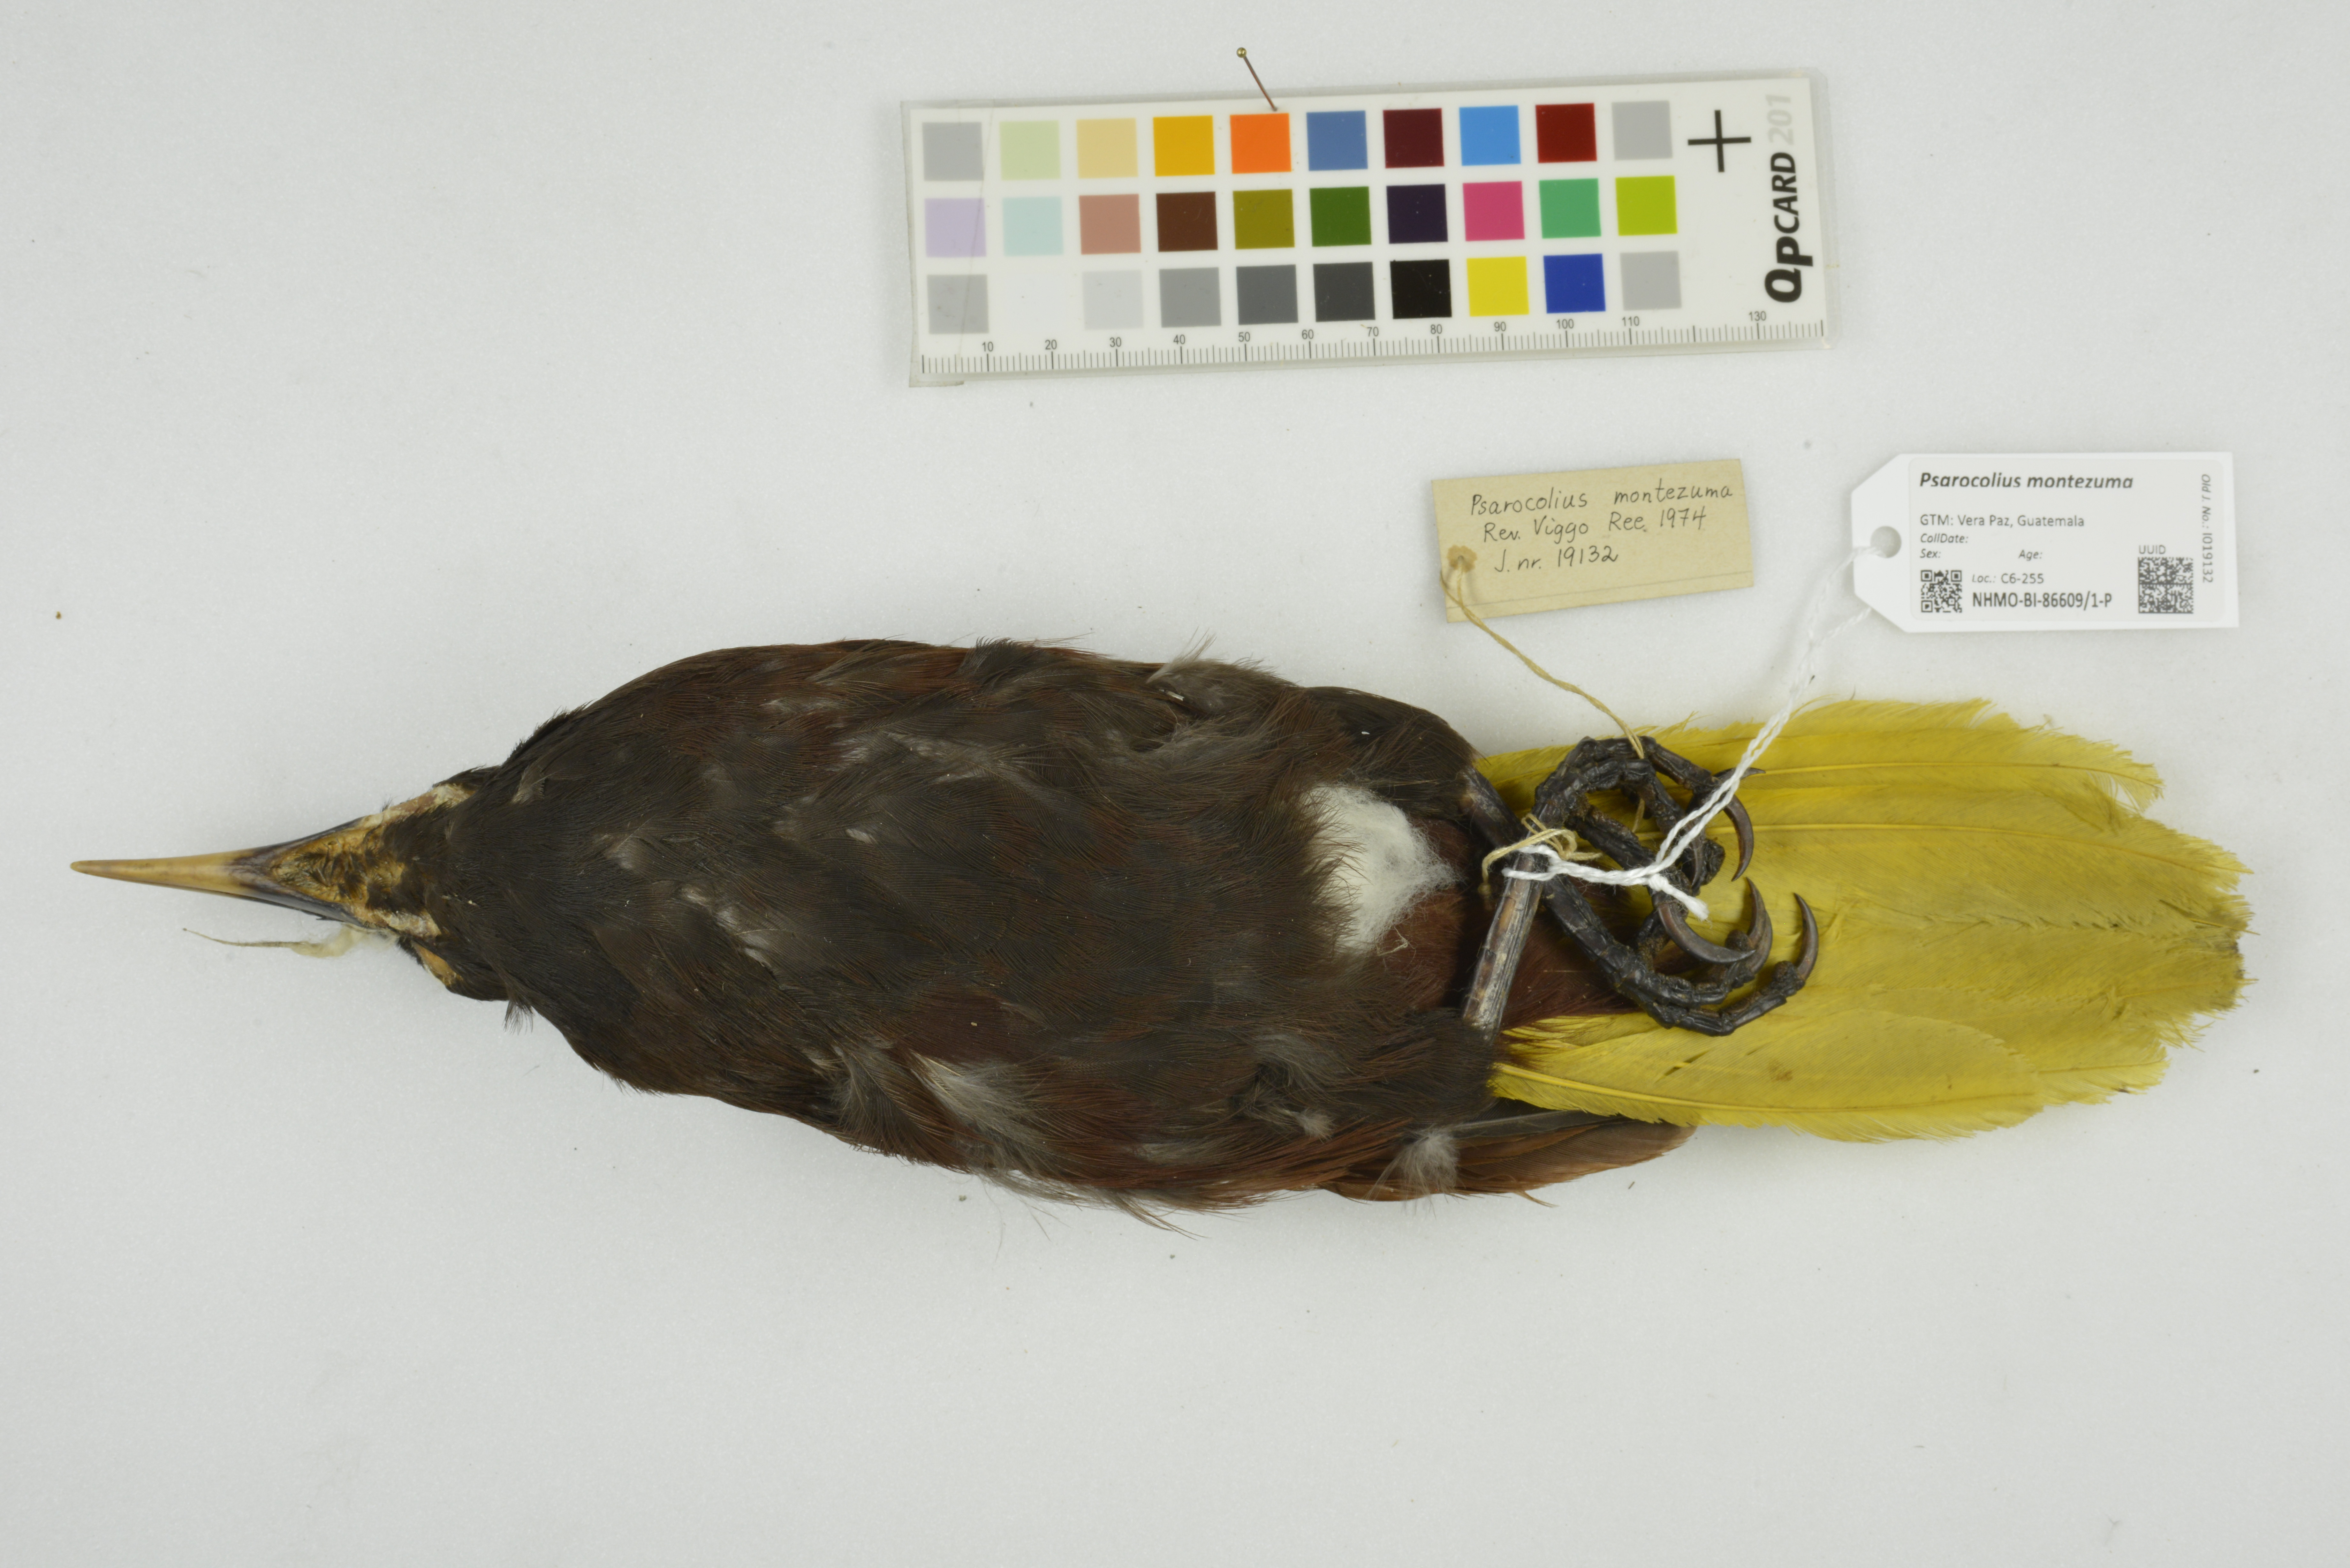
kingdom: Animalia
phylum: Chordata
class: Aves
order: Passeriformes
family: Icteridae
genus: Psarocolius
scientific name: Psarocolius montezuma
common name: Montezuma oropendola
